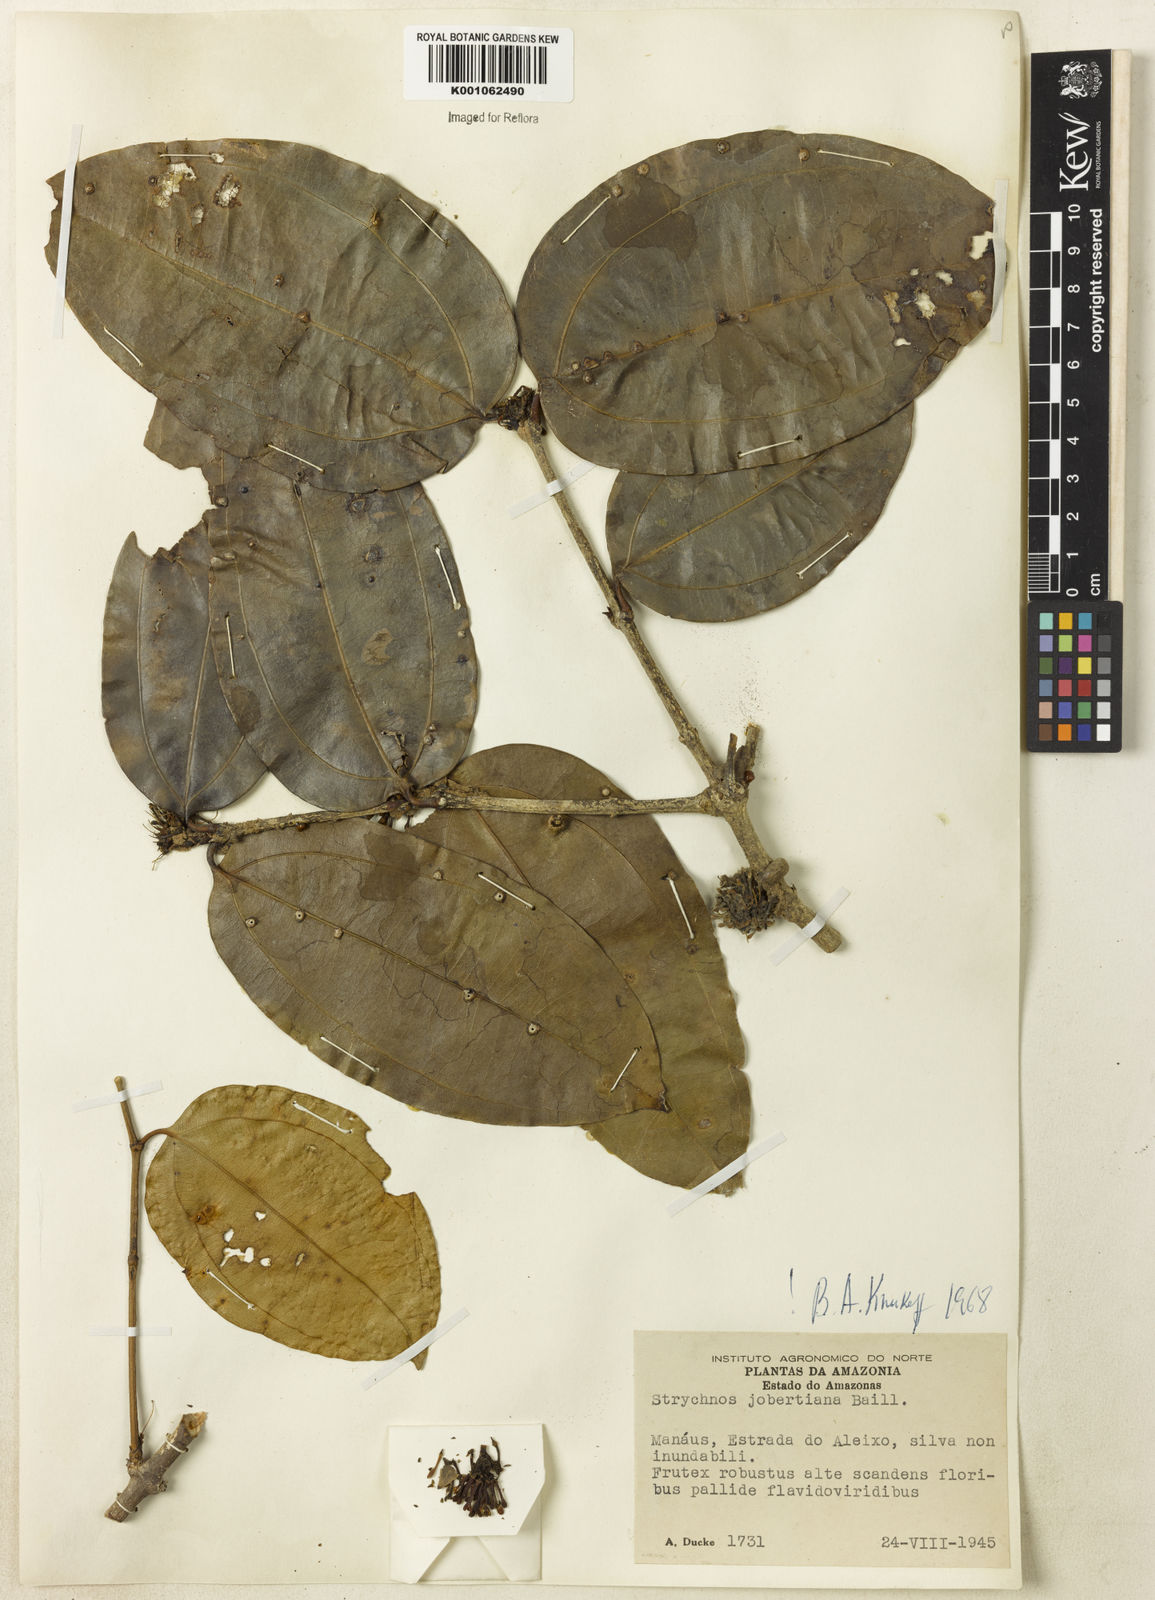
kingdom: Plantae
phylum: Tracheophyta
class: Magnoliopsida
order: Gentianales
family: Loganiaceae
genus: Strychnos
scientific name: Strychnos jobertiana
